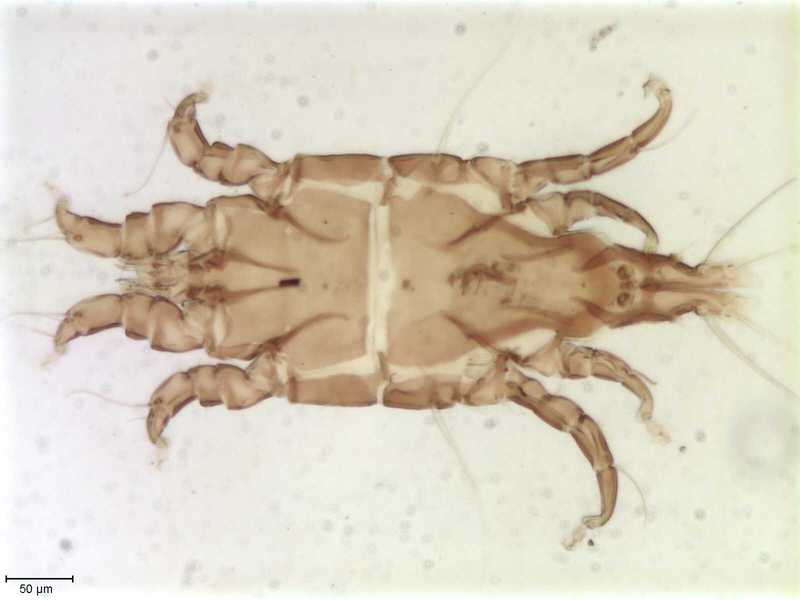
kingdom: Animalia
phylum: Arthropoda
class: Arachnida
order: Sarcoptiformes
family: Trouessartiidae
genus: Bicentralges
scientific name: Bicentralges
